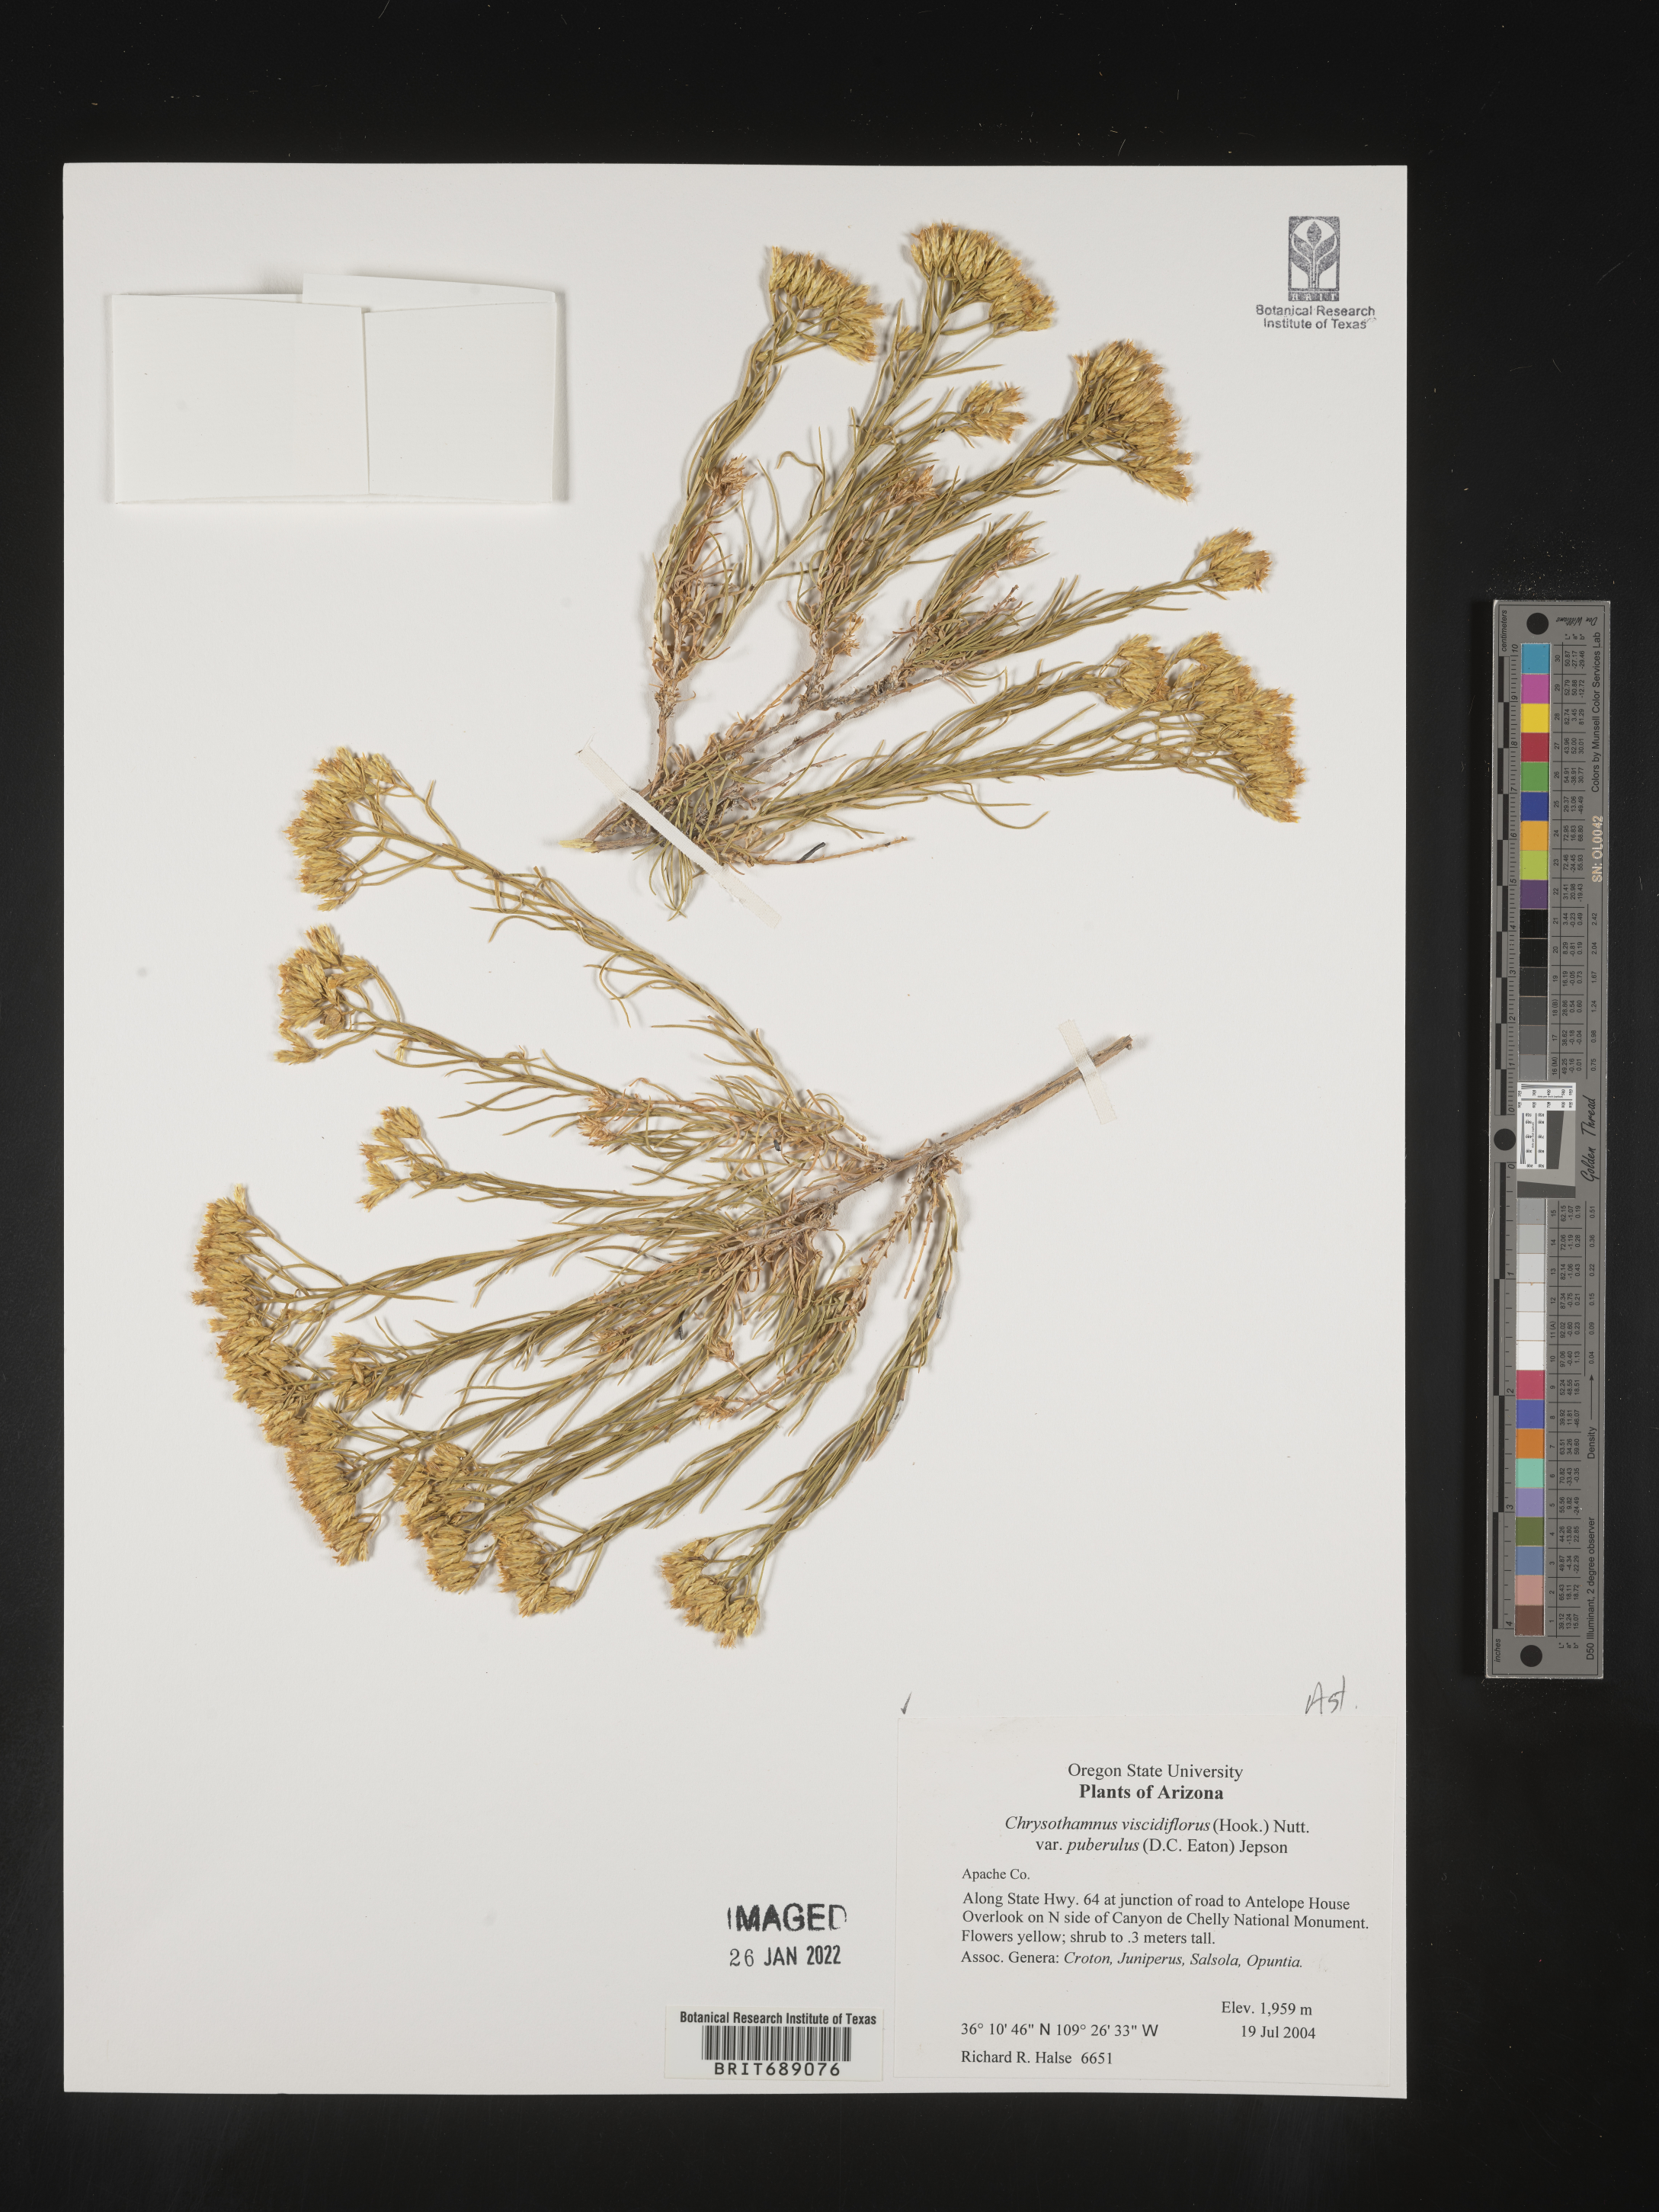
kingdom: Plantae
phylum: Tracheophyta
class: Magnoliopsida
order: Asterales
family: Asteraceae
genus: Chrysothamnus
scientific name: Chrysothamnus viscidiflorus
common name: Yellow rabbitbrush
